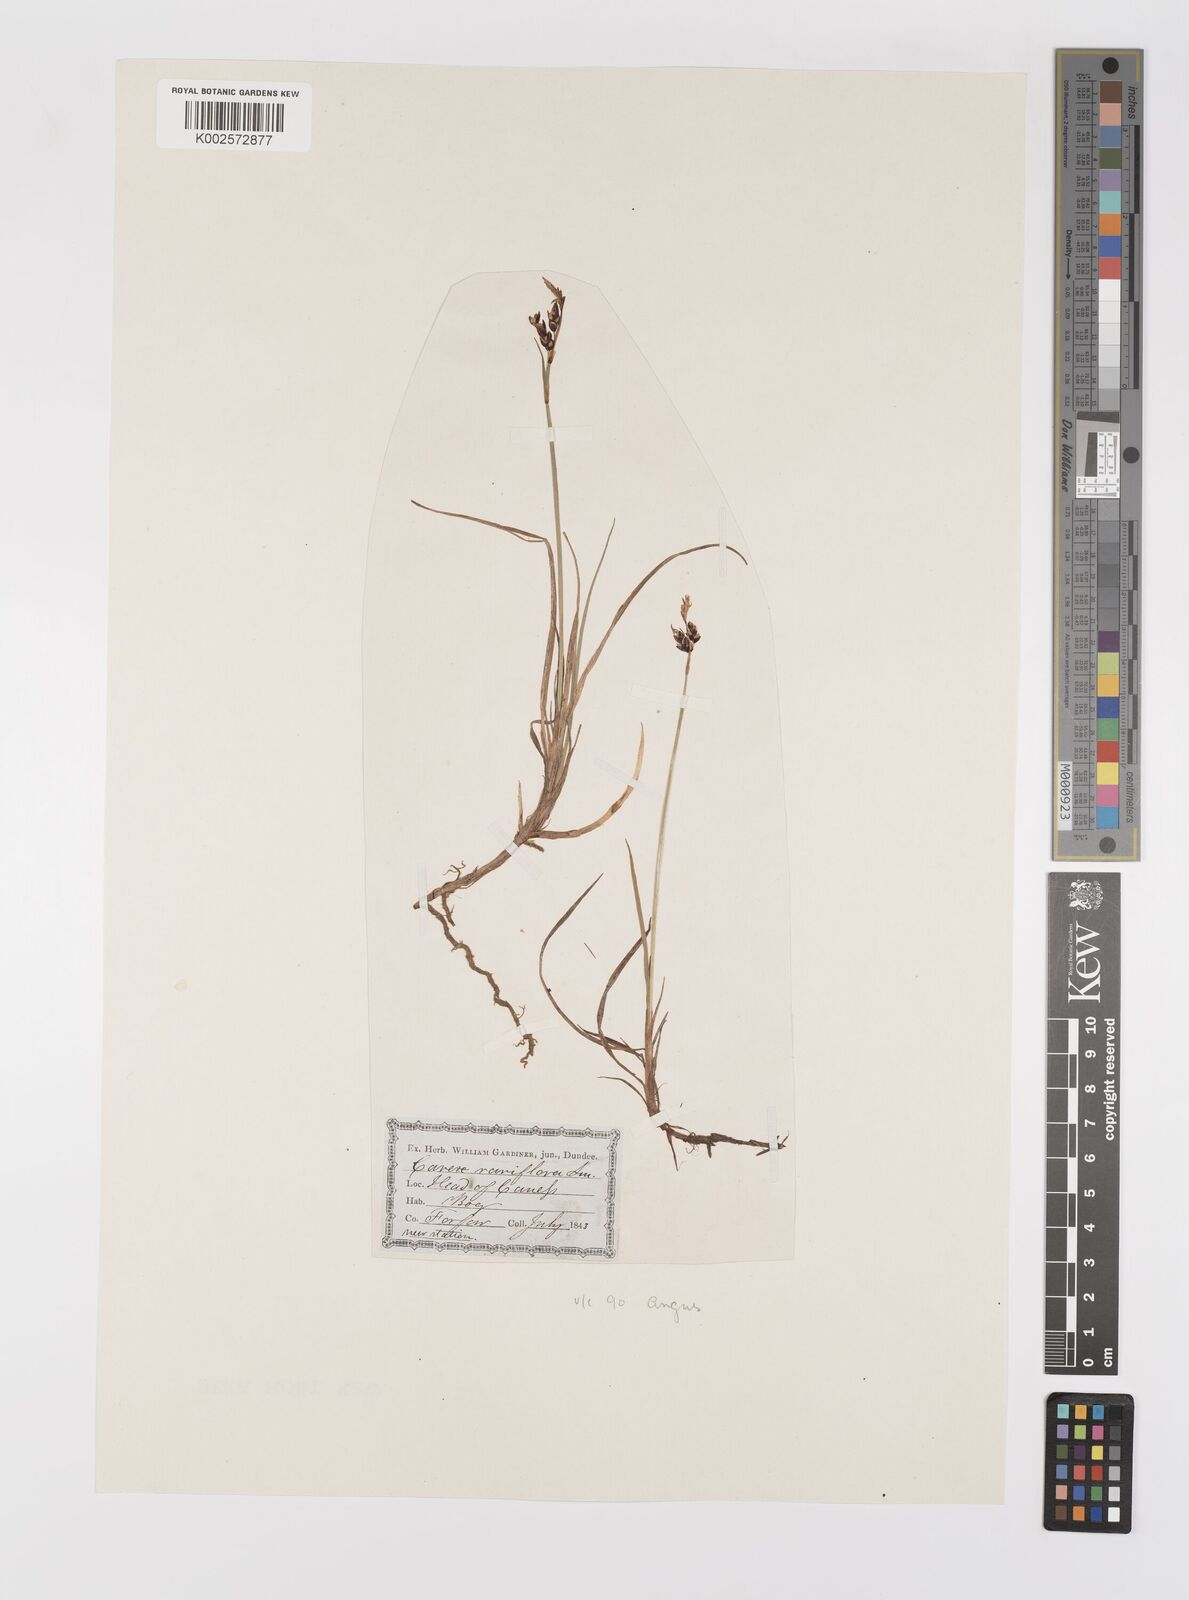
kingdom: Plantae
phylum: Tracheophyta
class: Liliopsida
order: Poales
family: Cyperaceae
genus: Carex
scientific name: Carex rariflora
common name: Loose-flowered alpine sedge
